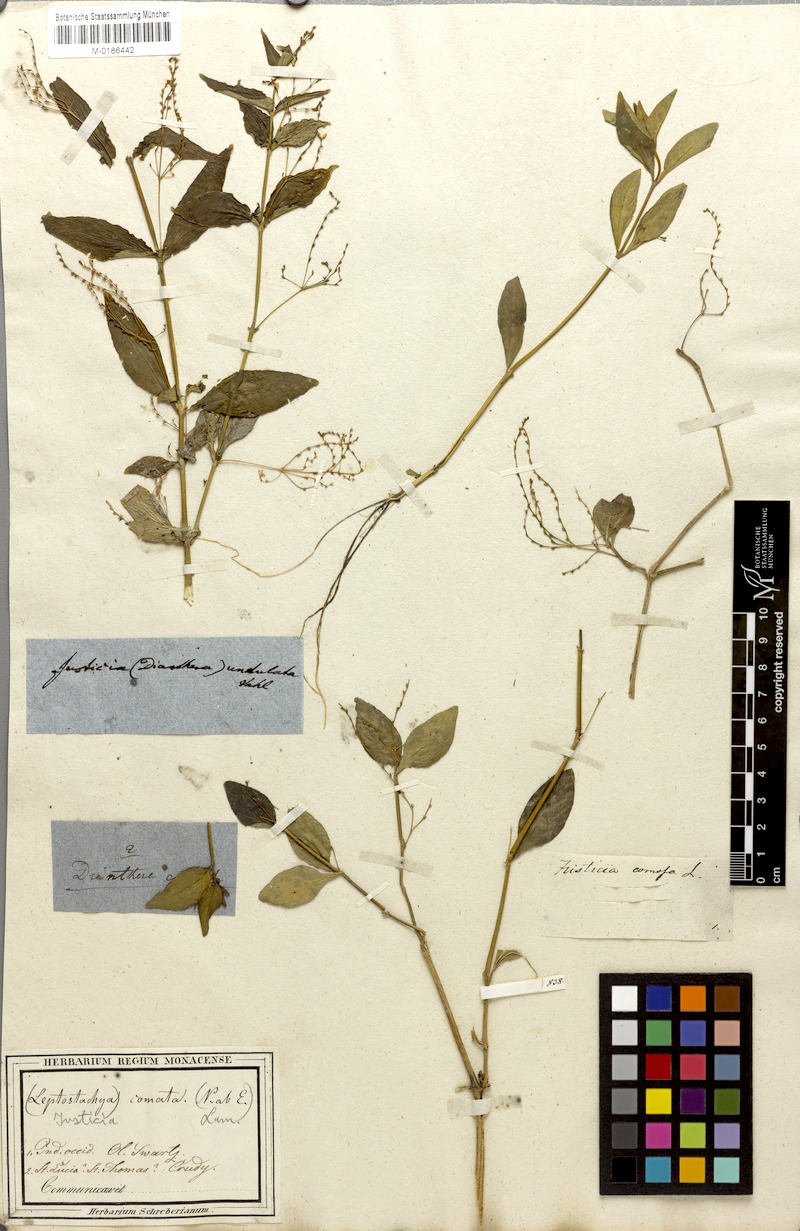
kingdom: Plantae
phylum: Tracheophyta
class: Magnoliopsida
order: Lamiales
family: Acanthaceae
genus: Dianthera
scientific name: Dianthera comata
